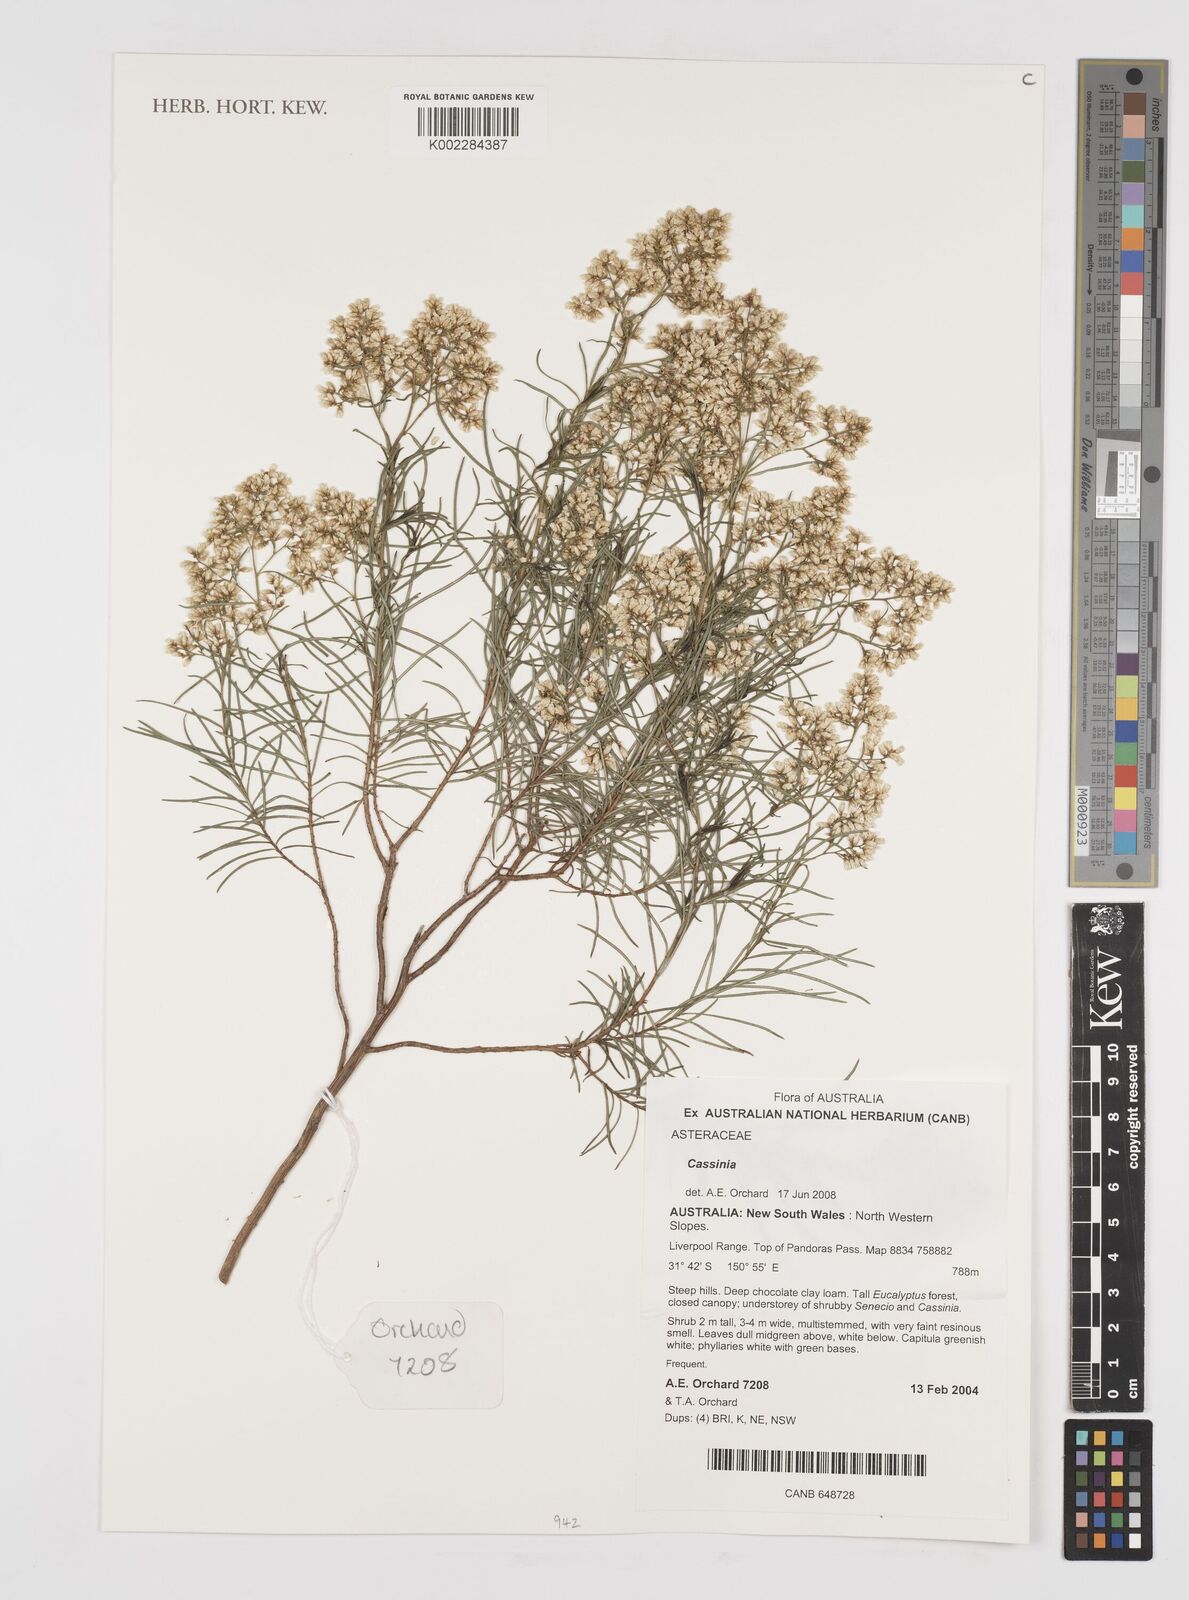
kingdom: Plantae
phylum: Tracheophyta
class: Magnoliopsida
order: Asterales
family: Asteraceae
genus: Cassinia
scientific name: Cassinia
